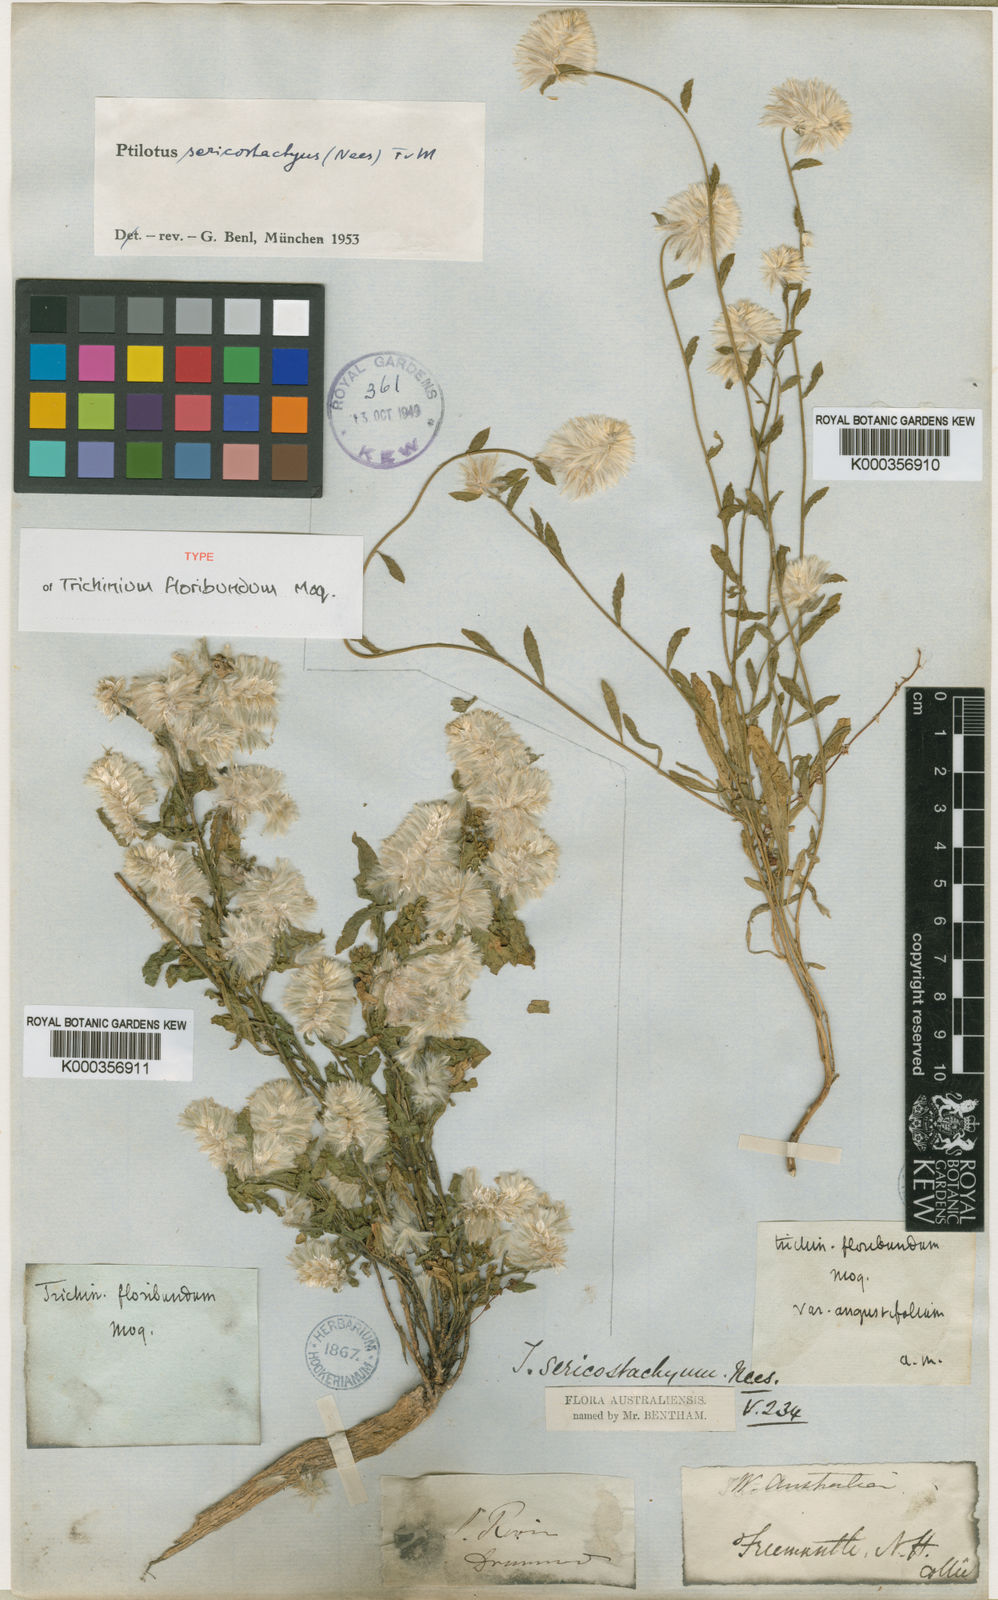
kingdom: Plantae
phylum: Tracheophyta
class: Magnoliopsida
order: Caryophyllales
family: Amaranthaceae
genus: Ptilotus
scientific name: Ptilotus sericostachyus
